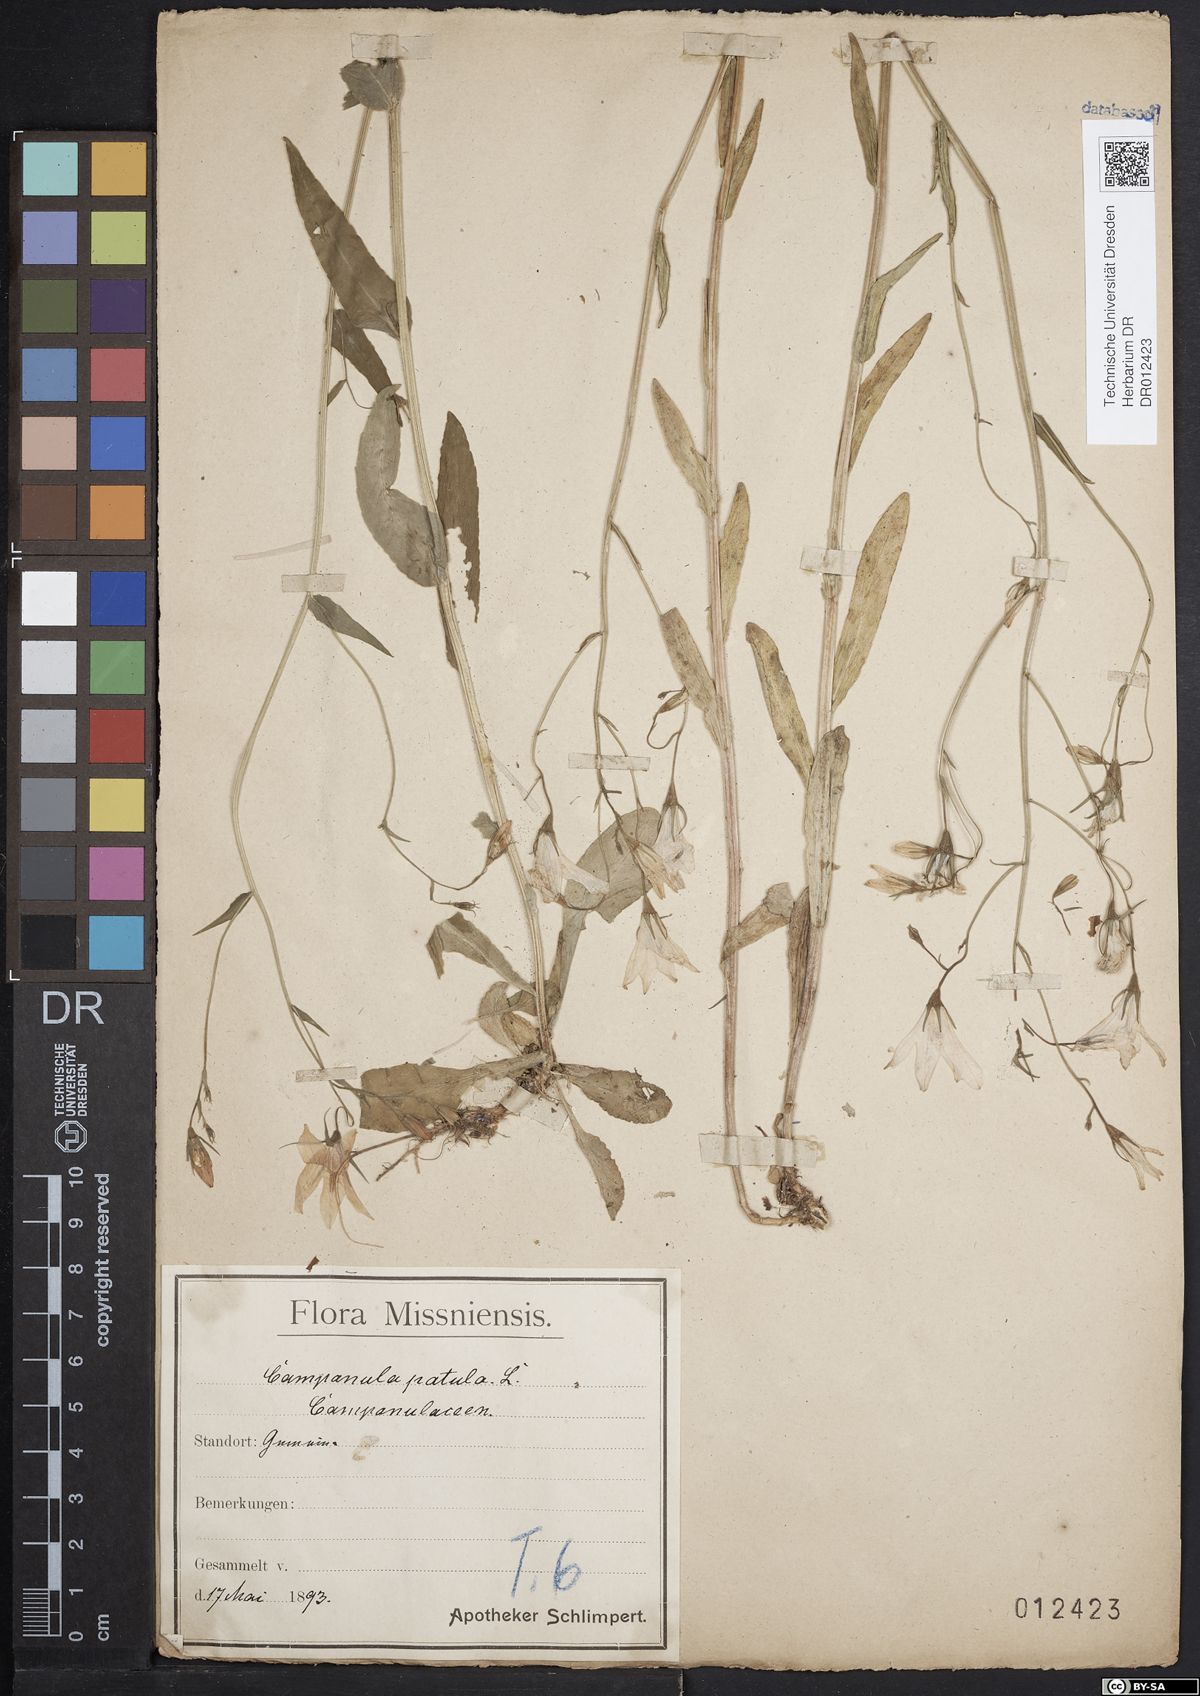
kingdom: Plantae
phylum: Tracheophyta
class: Magnoliopsida
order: Asterales
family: Campanulaceae
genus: Campanula
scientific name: Campanula patula
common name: Spreading bellflower
